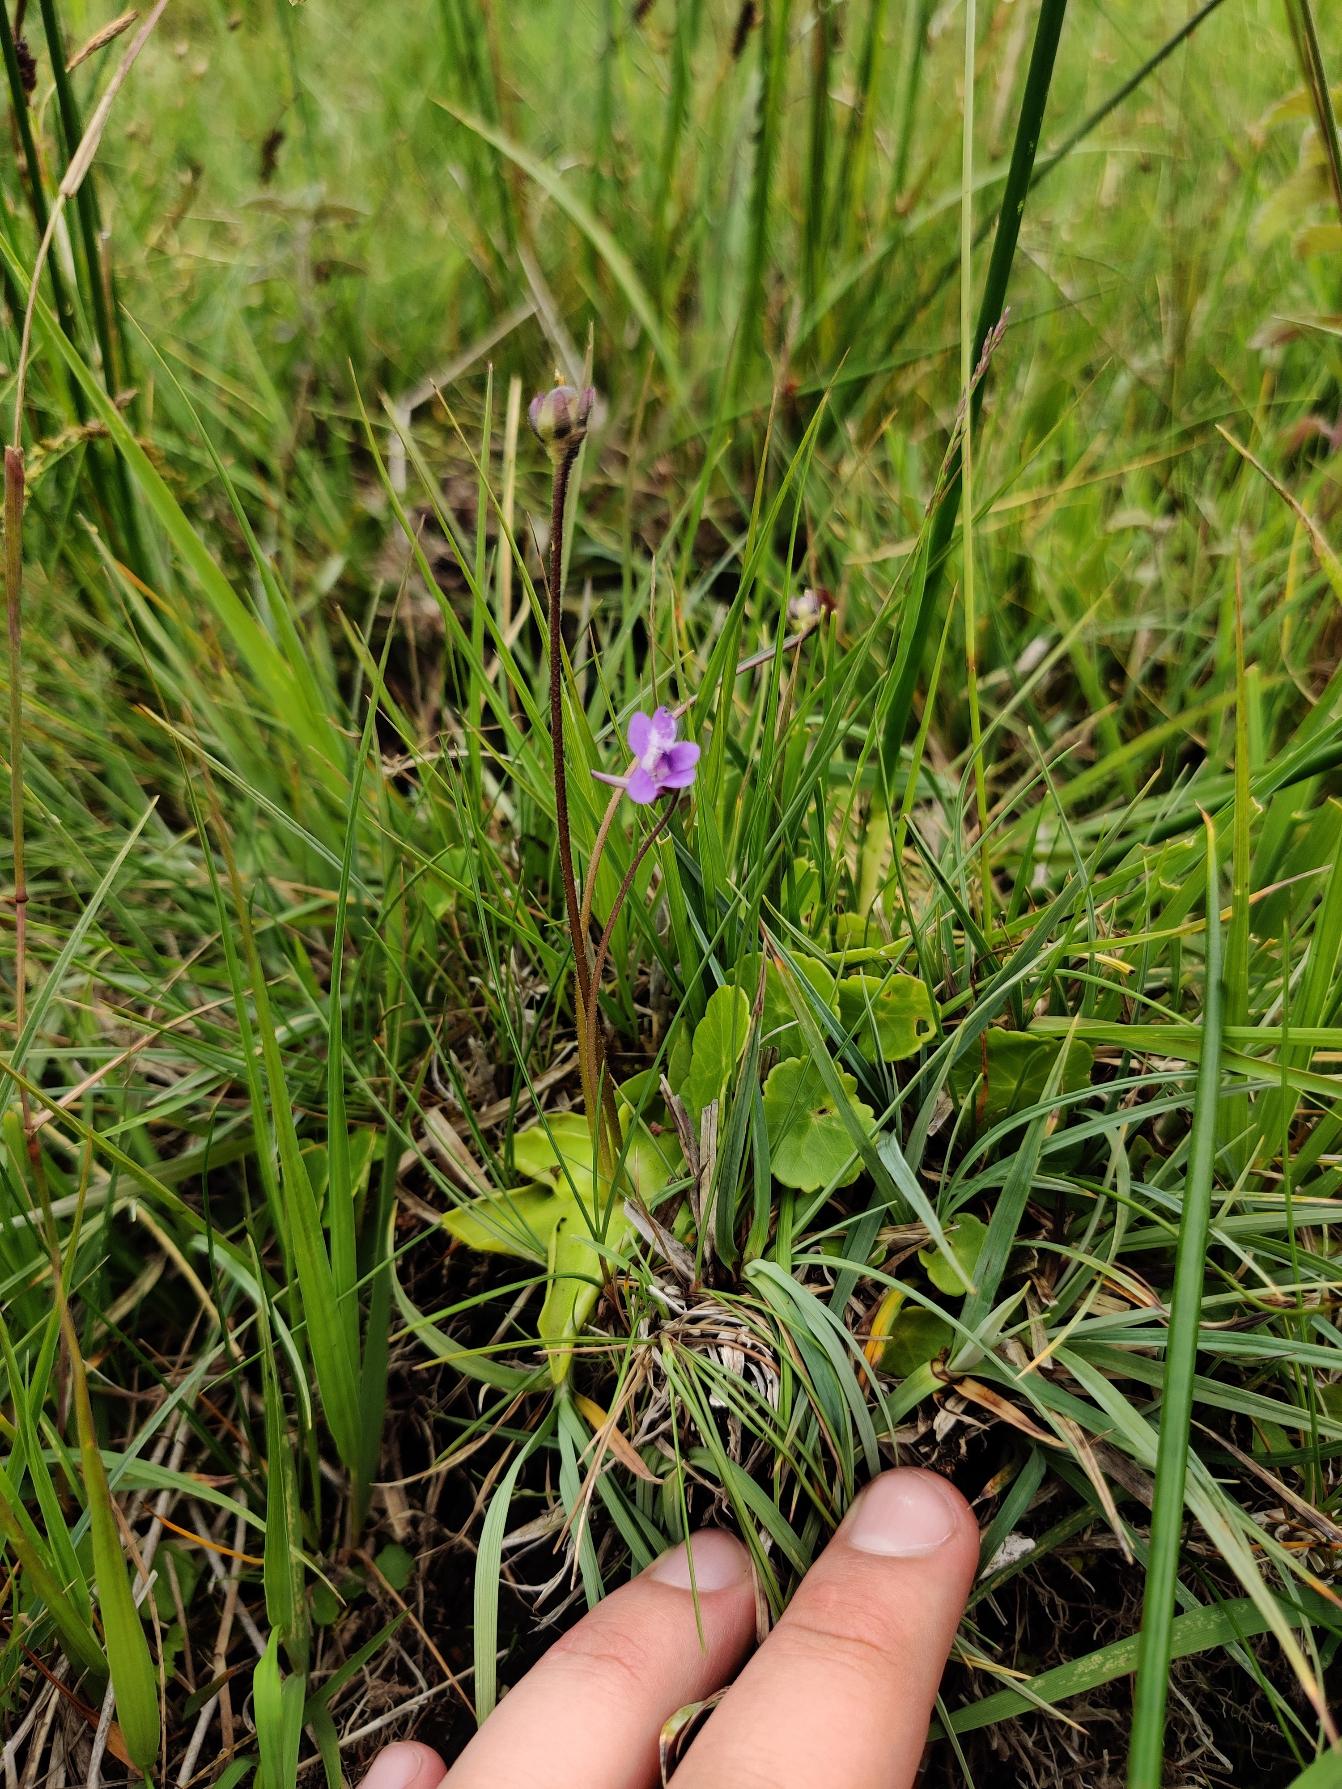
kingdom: Plantae
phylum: Tracheophyta
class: Magnoliopsida
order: Lamiales
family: Lentibulariaceae
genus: Pinguicula
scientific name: Pinguicula vulgaris
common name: Vibefedt
